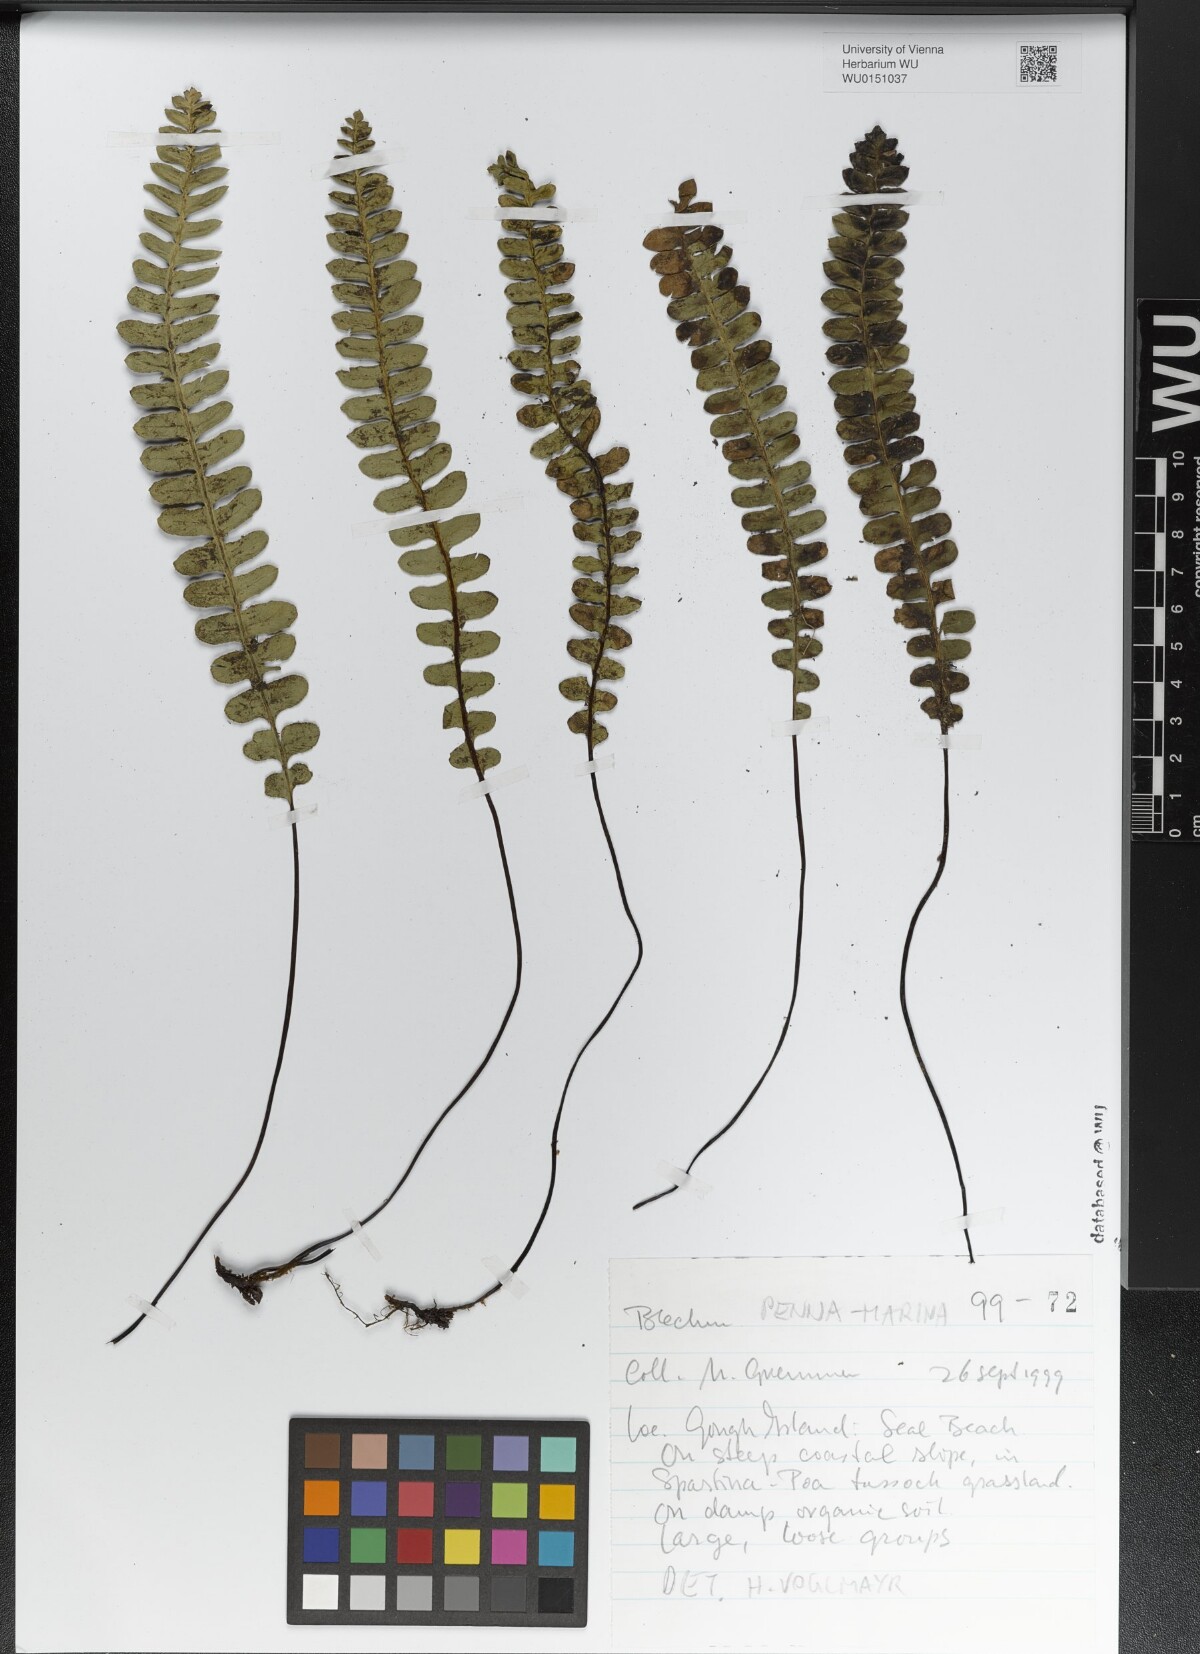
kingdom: Plantae
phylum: Tracheophyta
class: Polypodiopsida
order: Polypodiales
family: Blechnaceae
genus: Austroblechnum
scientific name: Austroblechnum penna-marina
